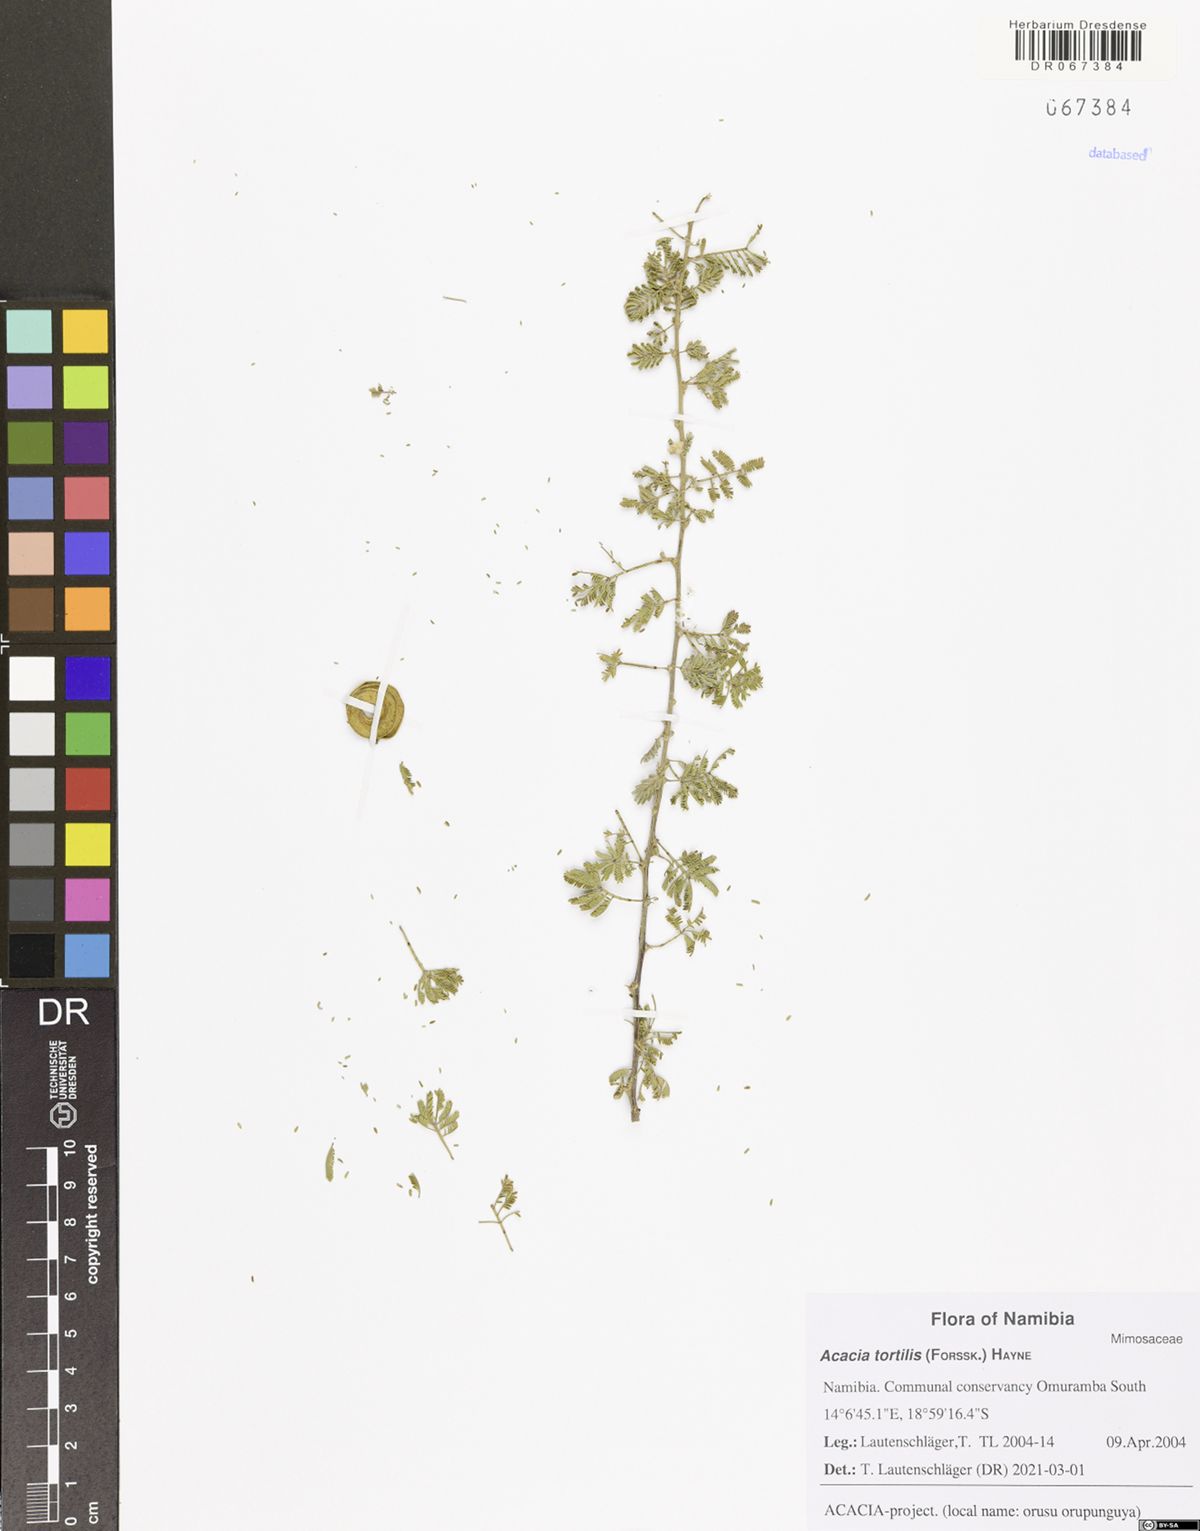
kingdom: Plantae
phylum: Tracheophyta
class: Magnoliopsida
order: Fabales
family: Fabaceae
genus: Vachellia
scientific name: Vachellia tortilis
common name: Umbrella thorn acacia
